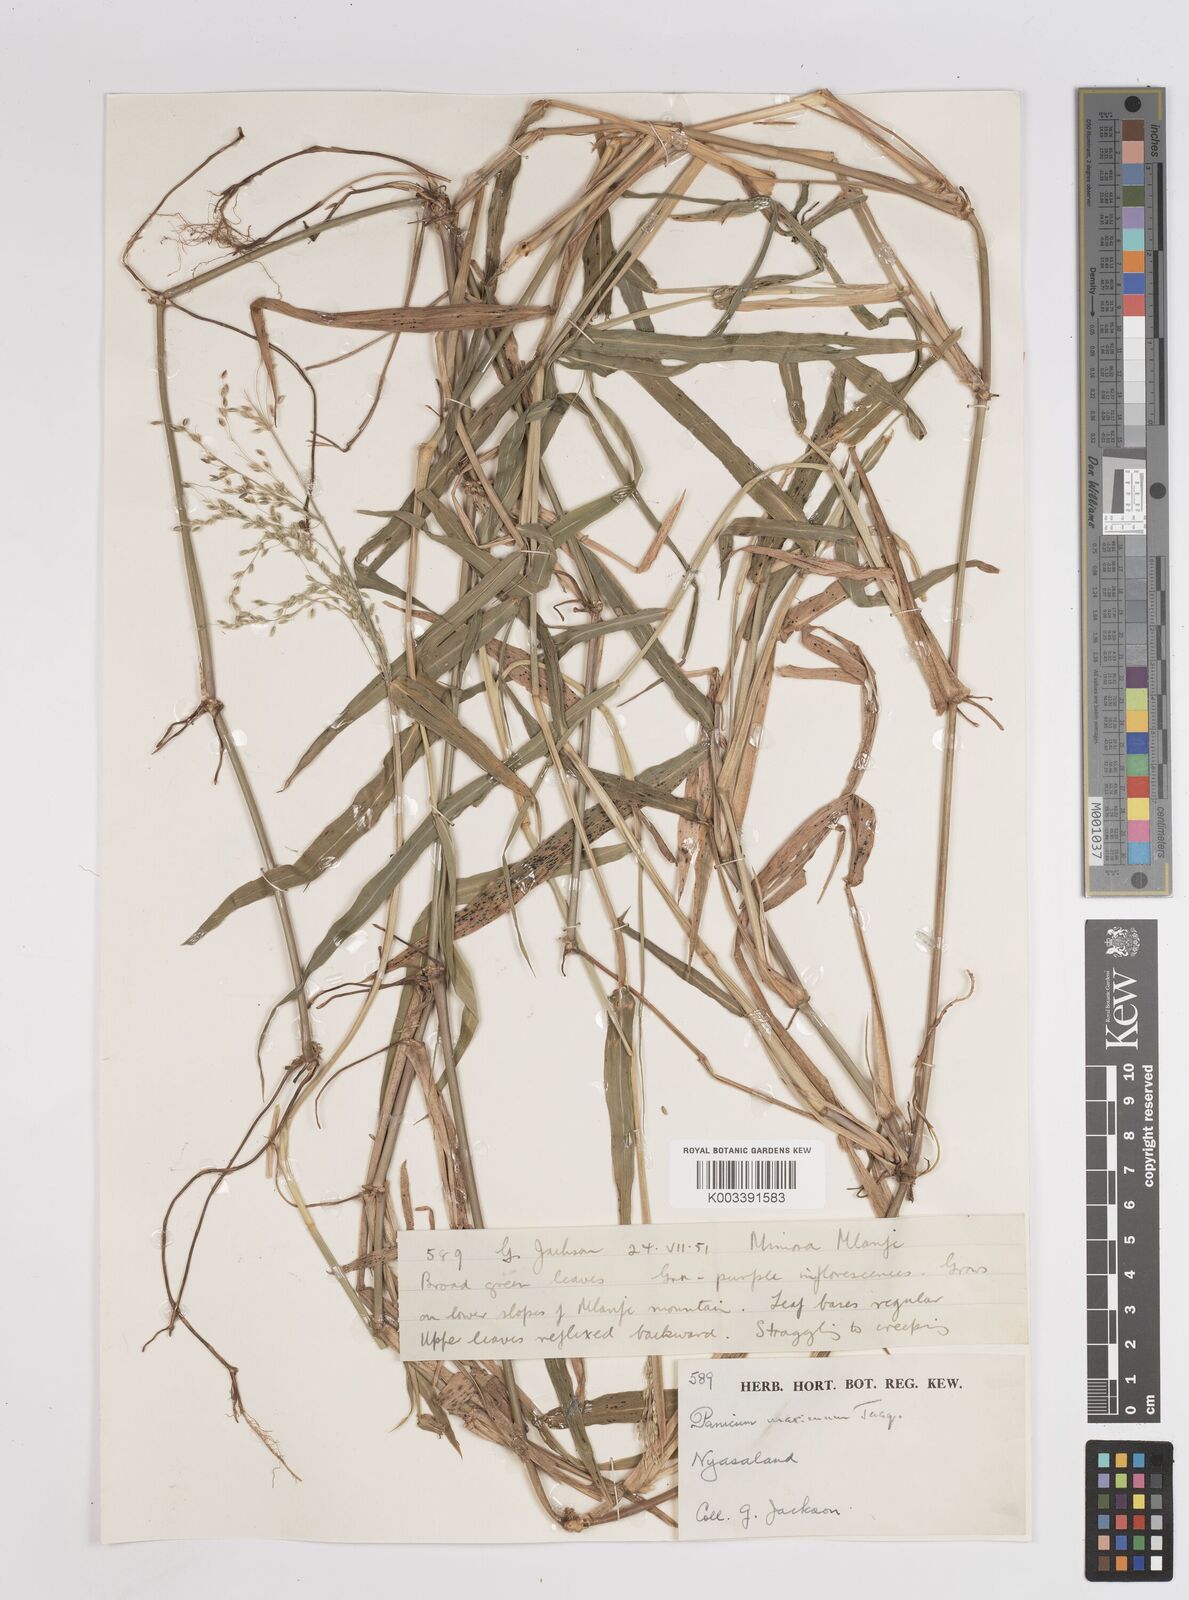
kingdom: Plantae
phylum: Tracheophyta
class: Liliopsida
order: Poales
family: Poaceae
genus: Megathyrsus
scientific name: Megathyrsus maximus
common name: Guineagrass
